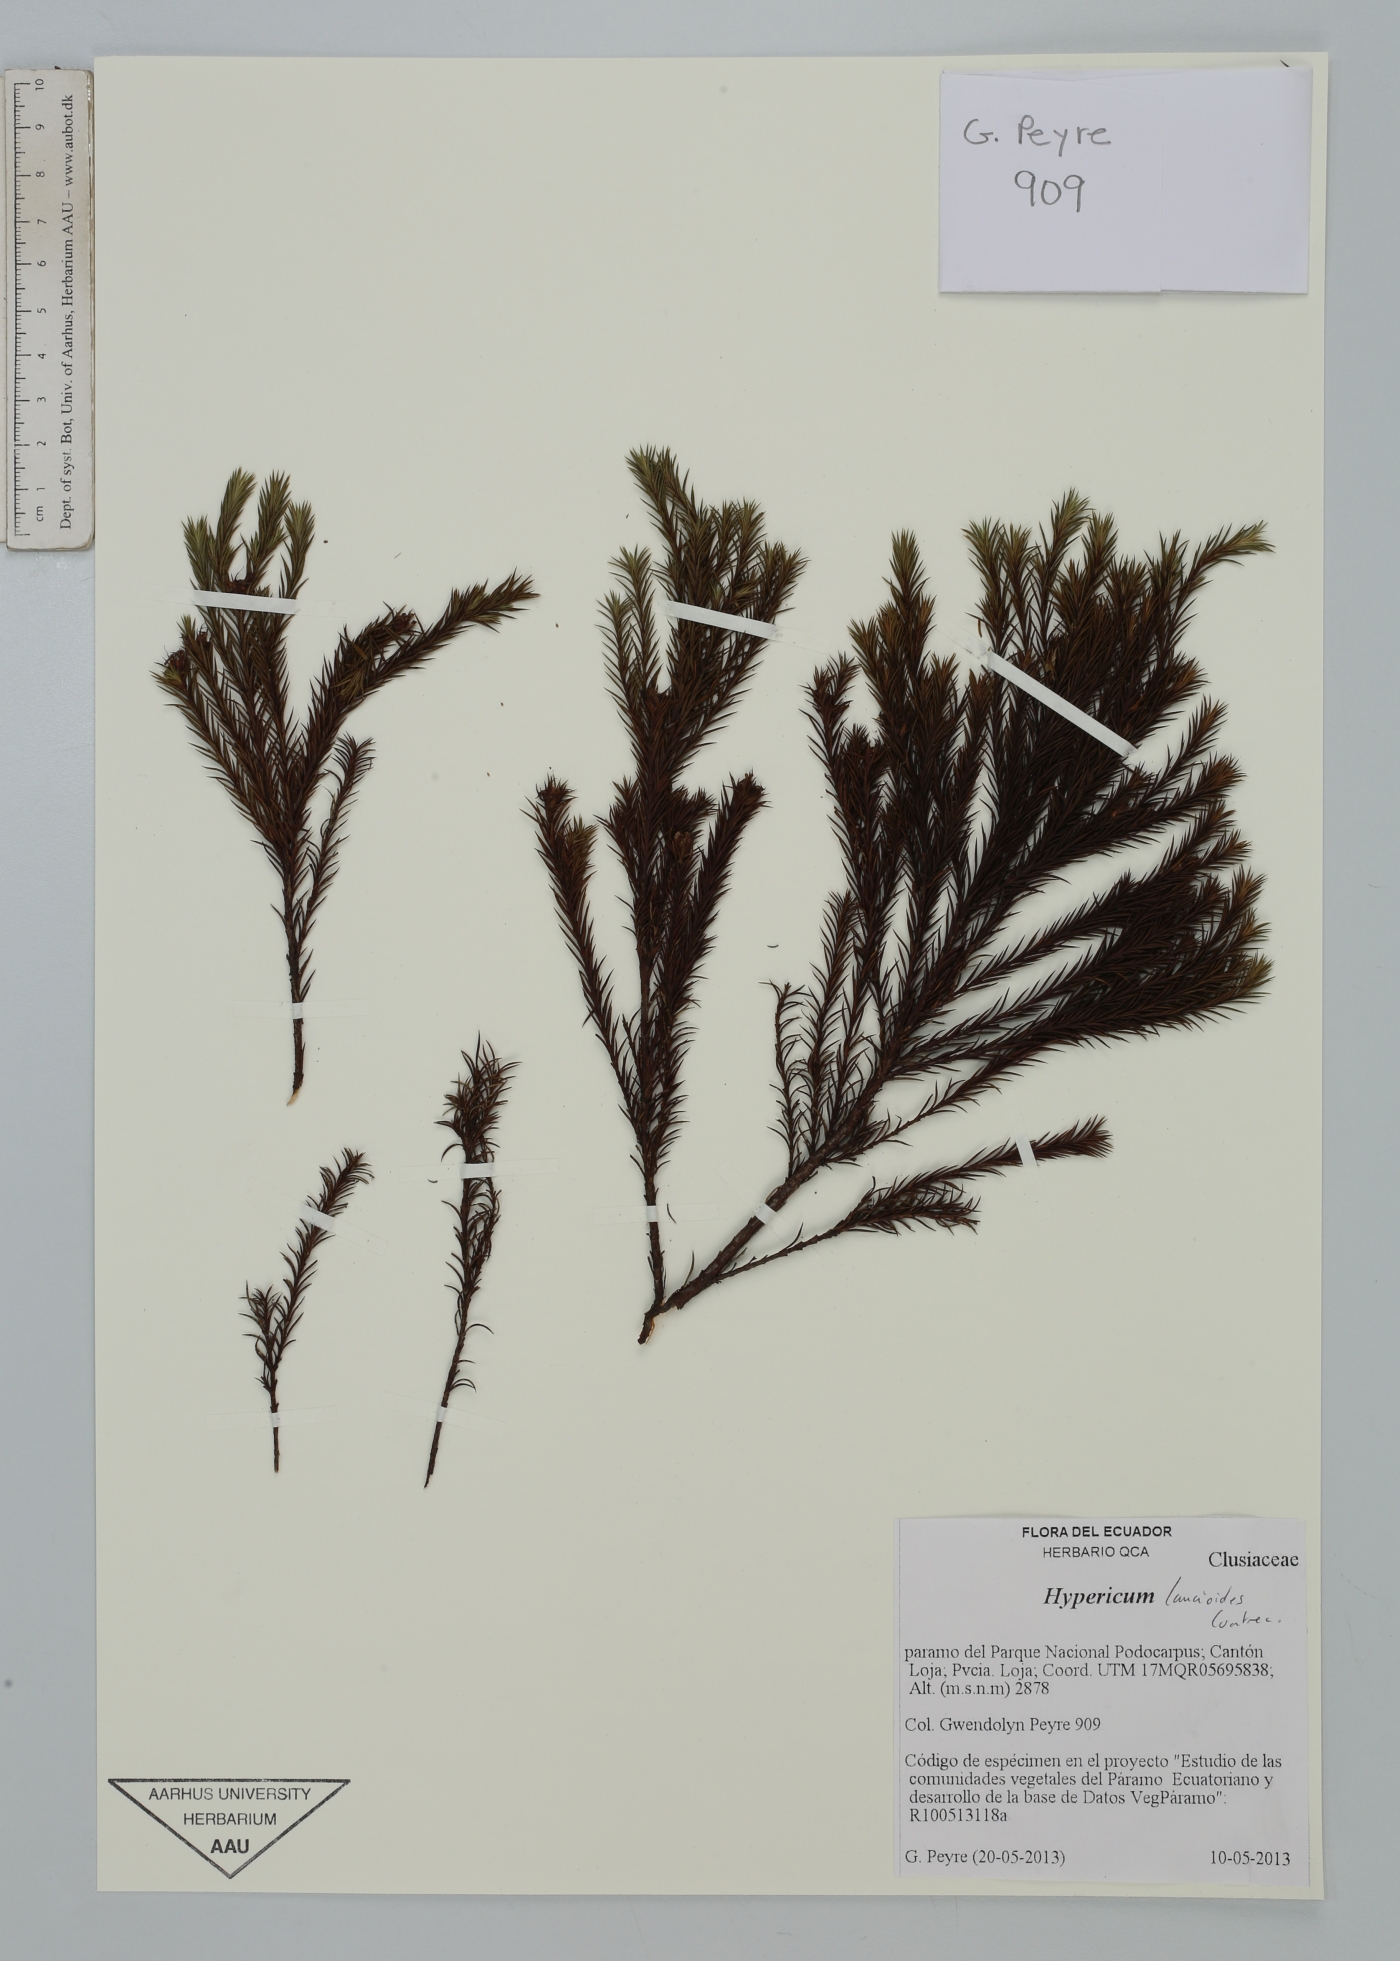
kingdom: Plantae
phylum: Tracheophyta
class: Magnoliopsida
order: Malpighiales
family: Hypericaceae
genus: Hypericum
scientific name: Hypericum lancioides
